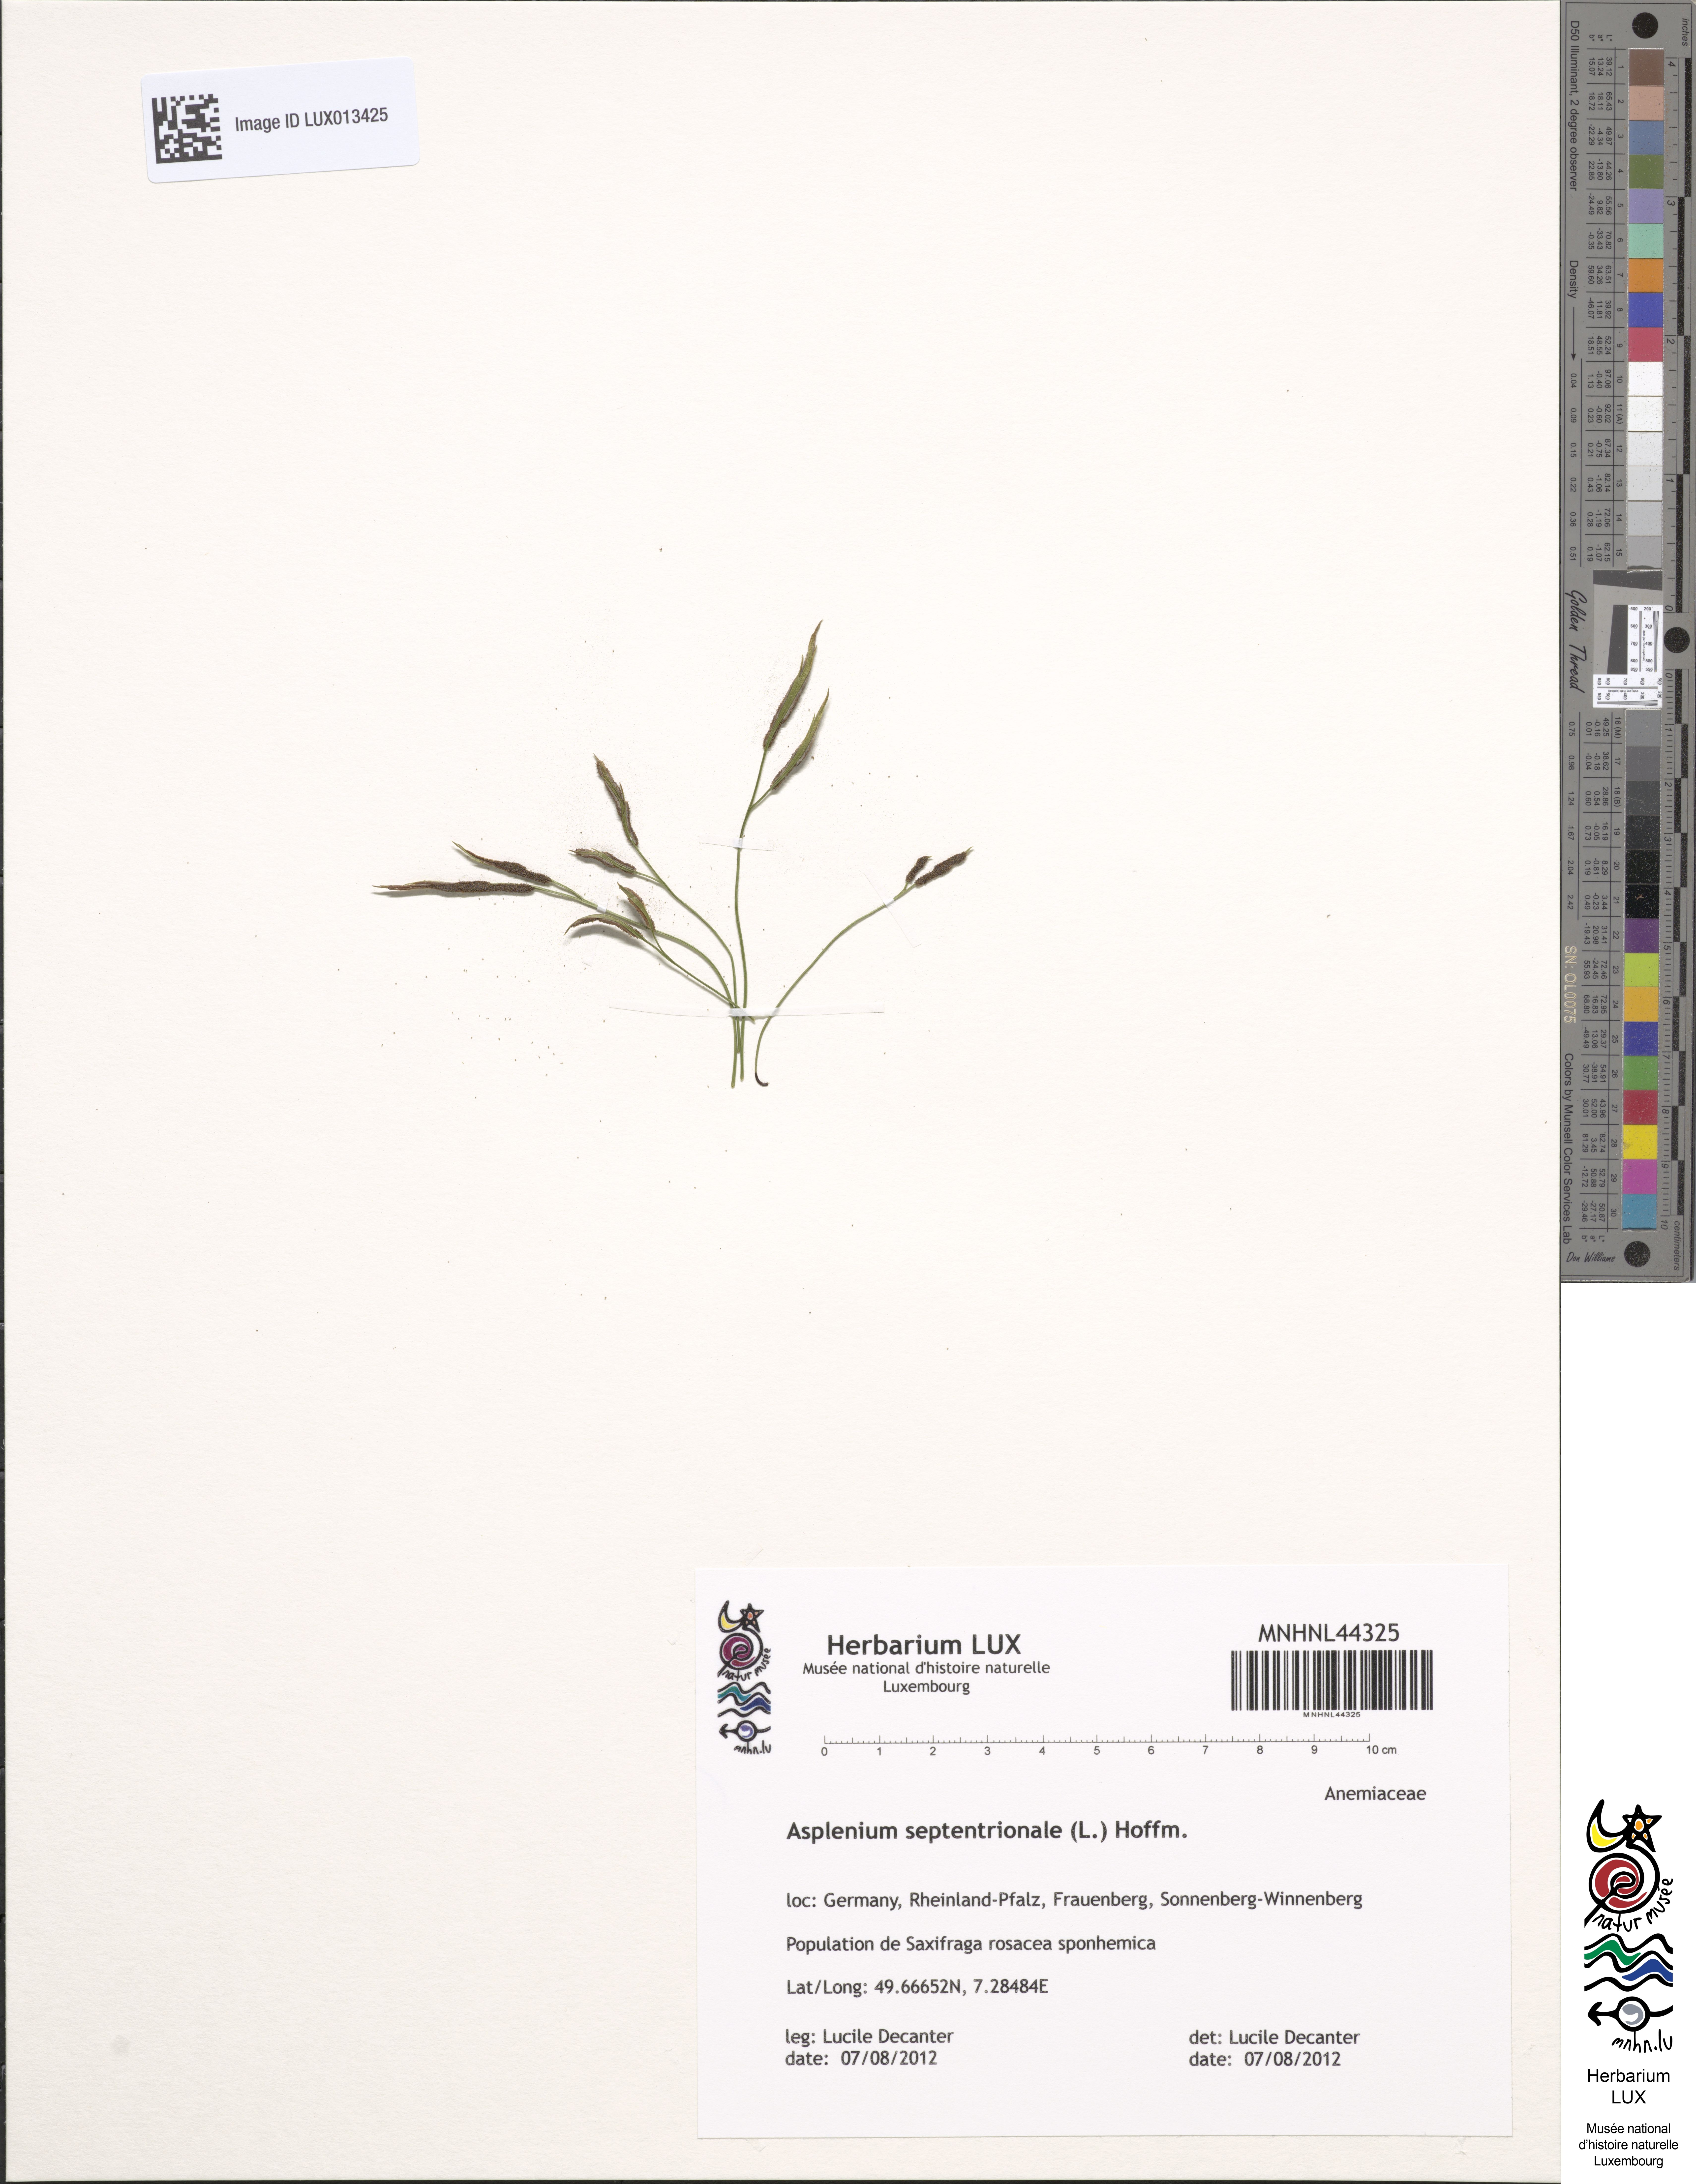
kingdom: Plantae
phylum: Tracheophyta
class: Polypodiopsida
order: Polypodiales
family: Aspleniaceae
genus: Asplenium
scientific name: Asplenium septentrionale
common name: Forked spleenwort
